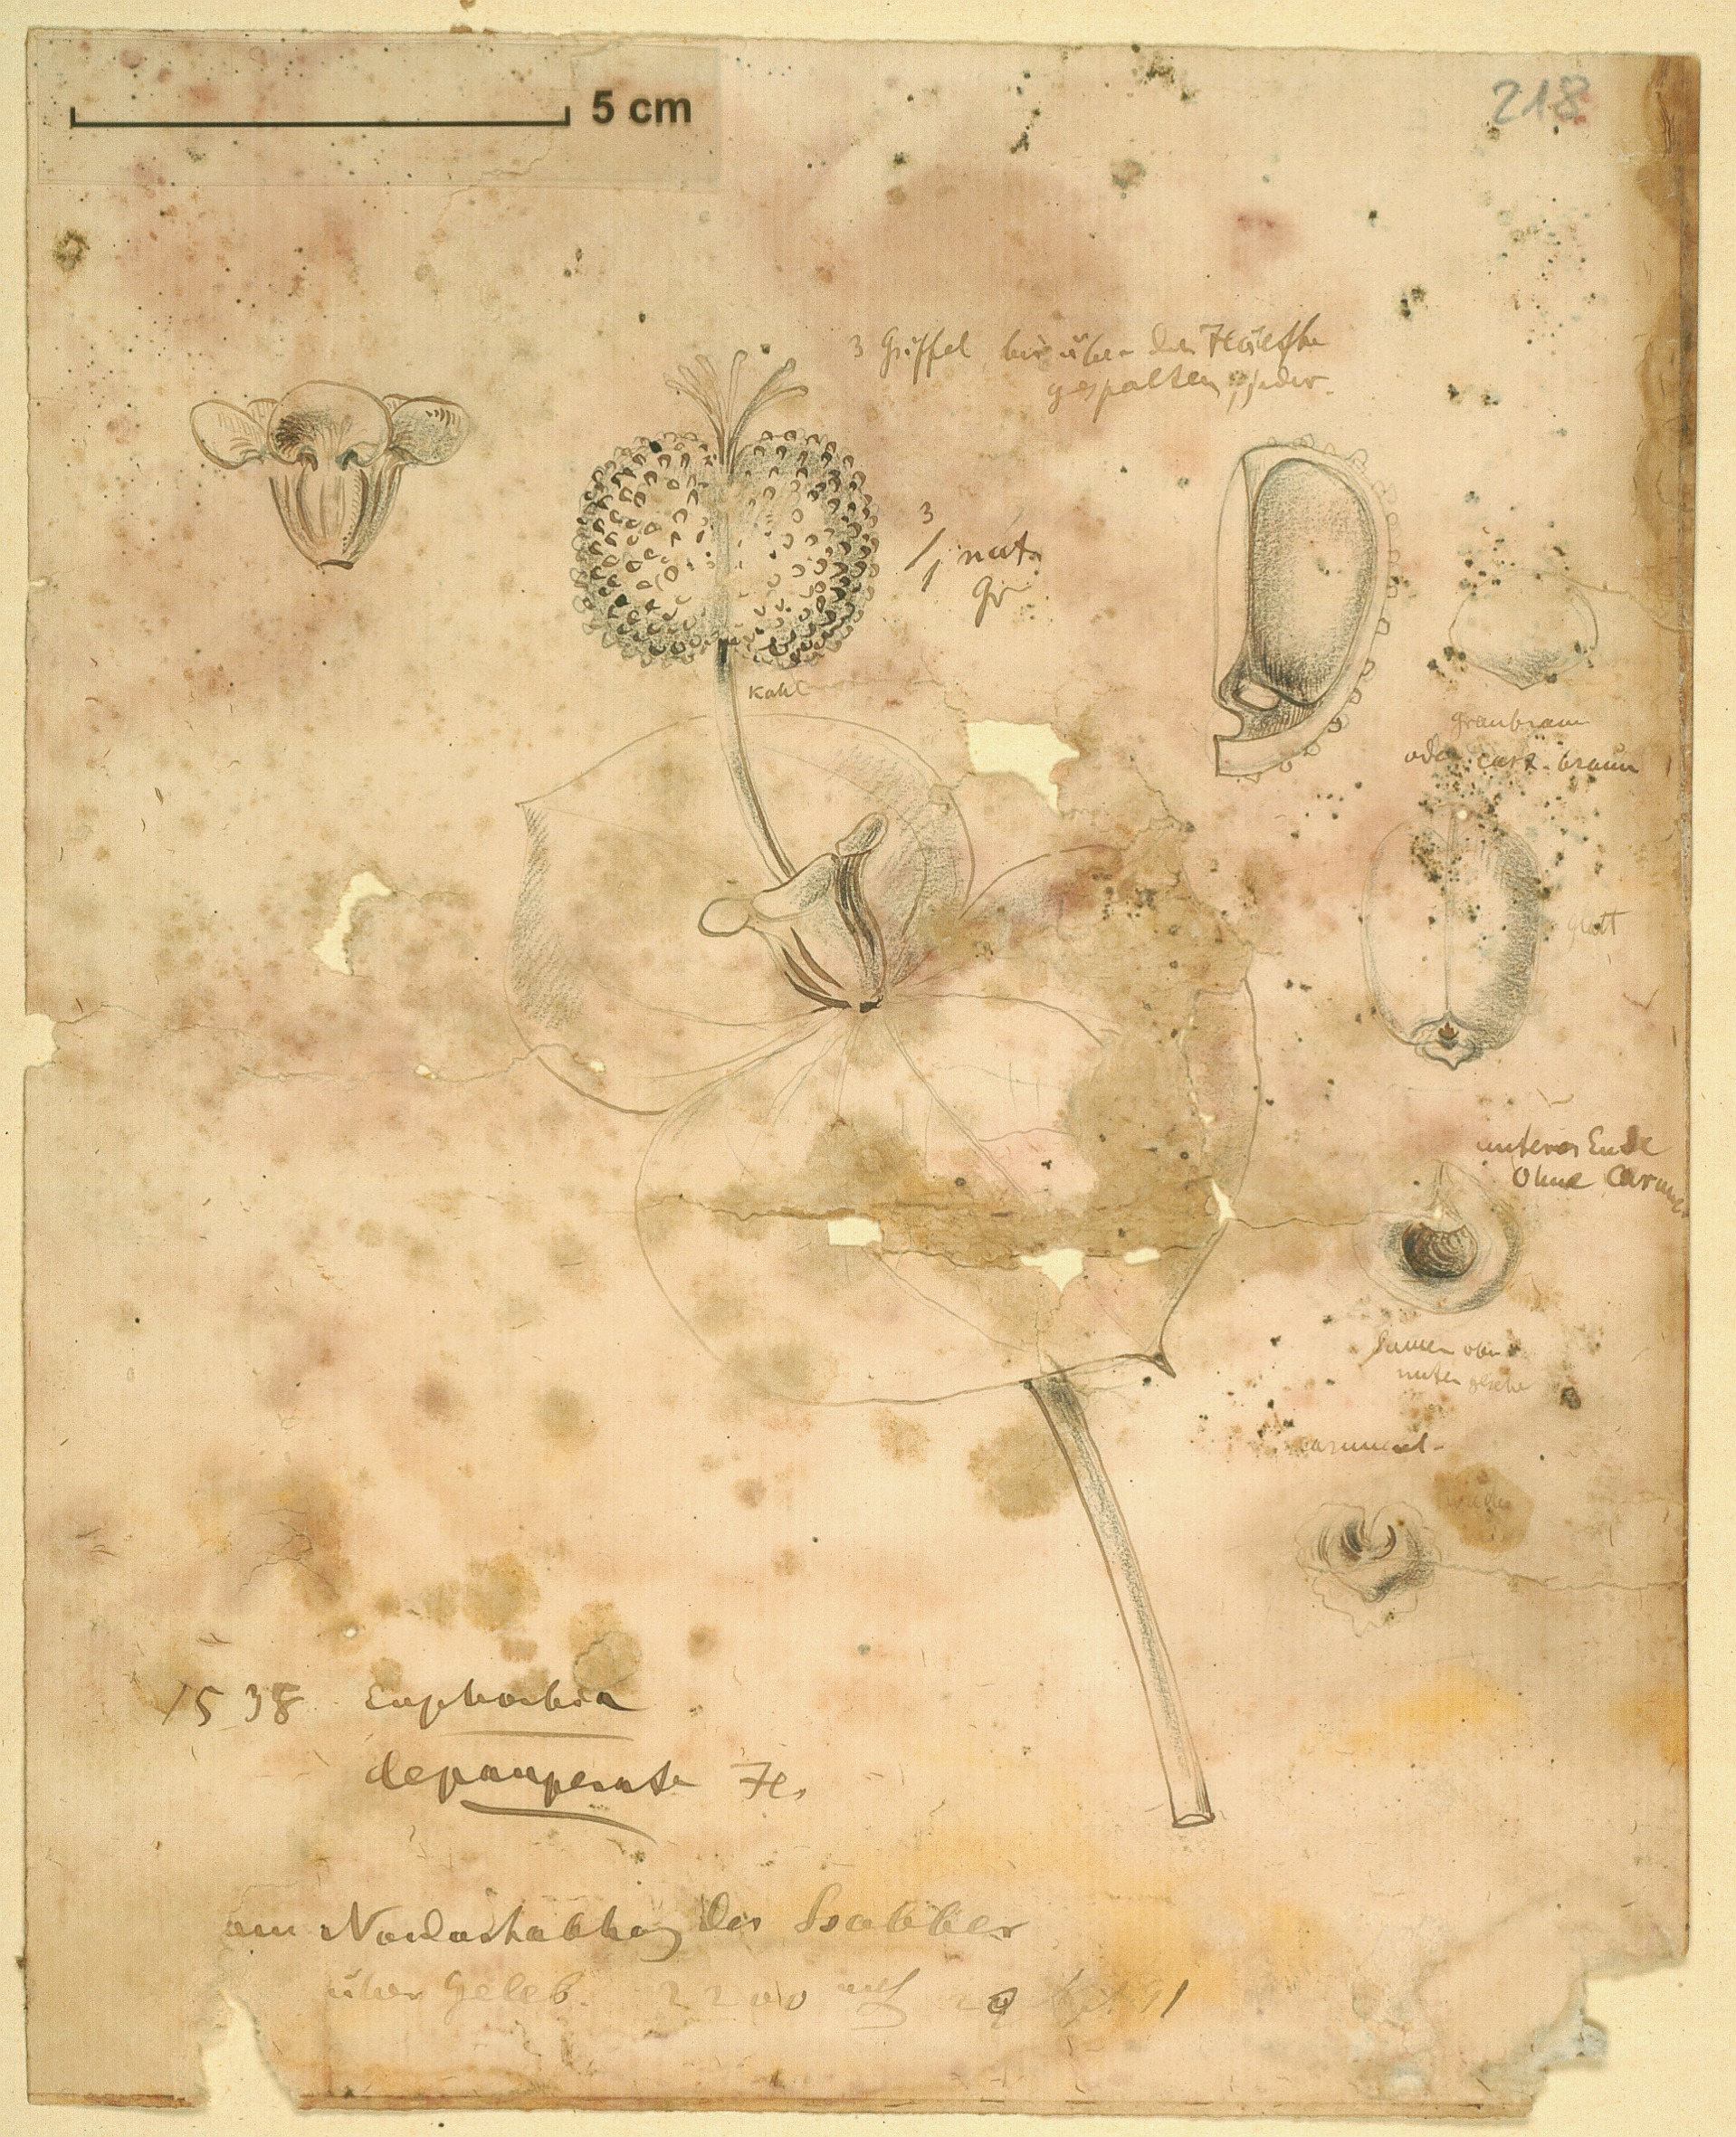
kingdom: Plantae
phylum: Tracheophyta
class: Magnoliopsida
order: Malpighiales
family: Euphorbiaceae
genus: Euphorbia
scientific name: Euphorbia depauperata
